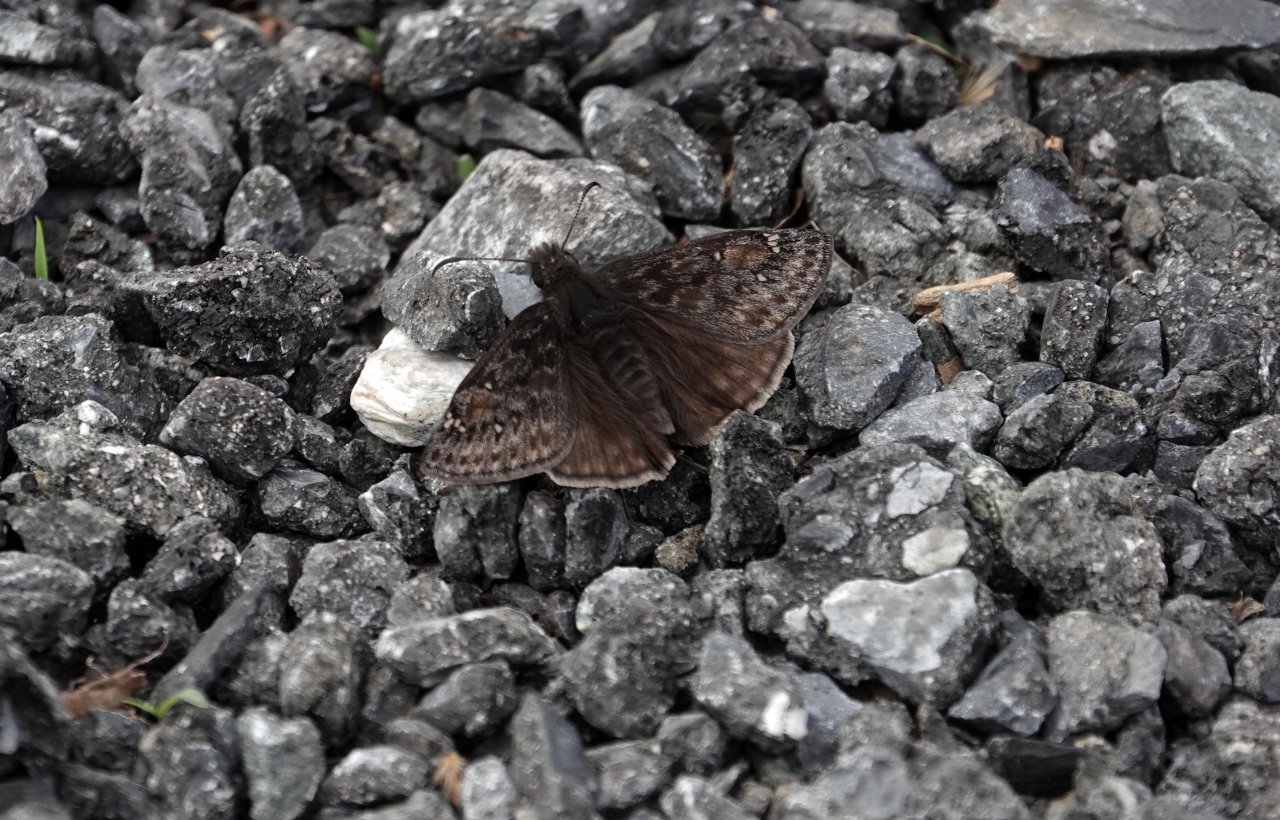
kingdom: Animalia
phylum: Arthropoda
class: Insecta
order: Lepidoptera
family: Hesperiidae
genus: Erynnis
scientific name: Erynnis
